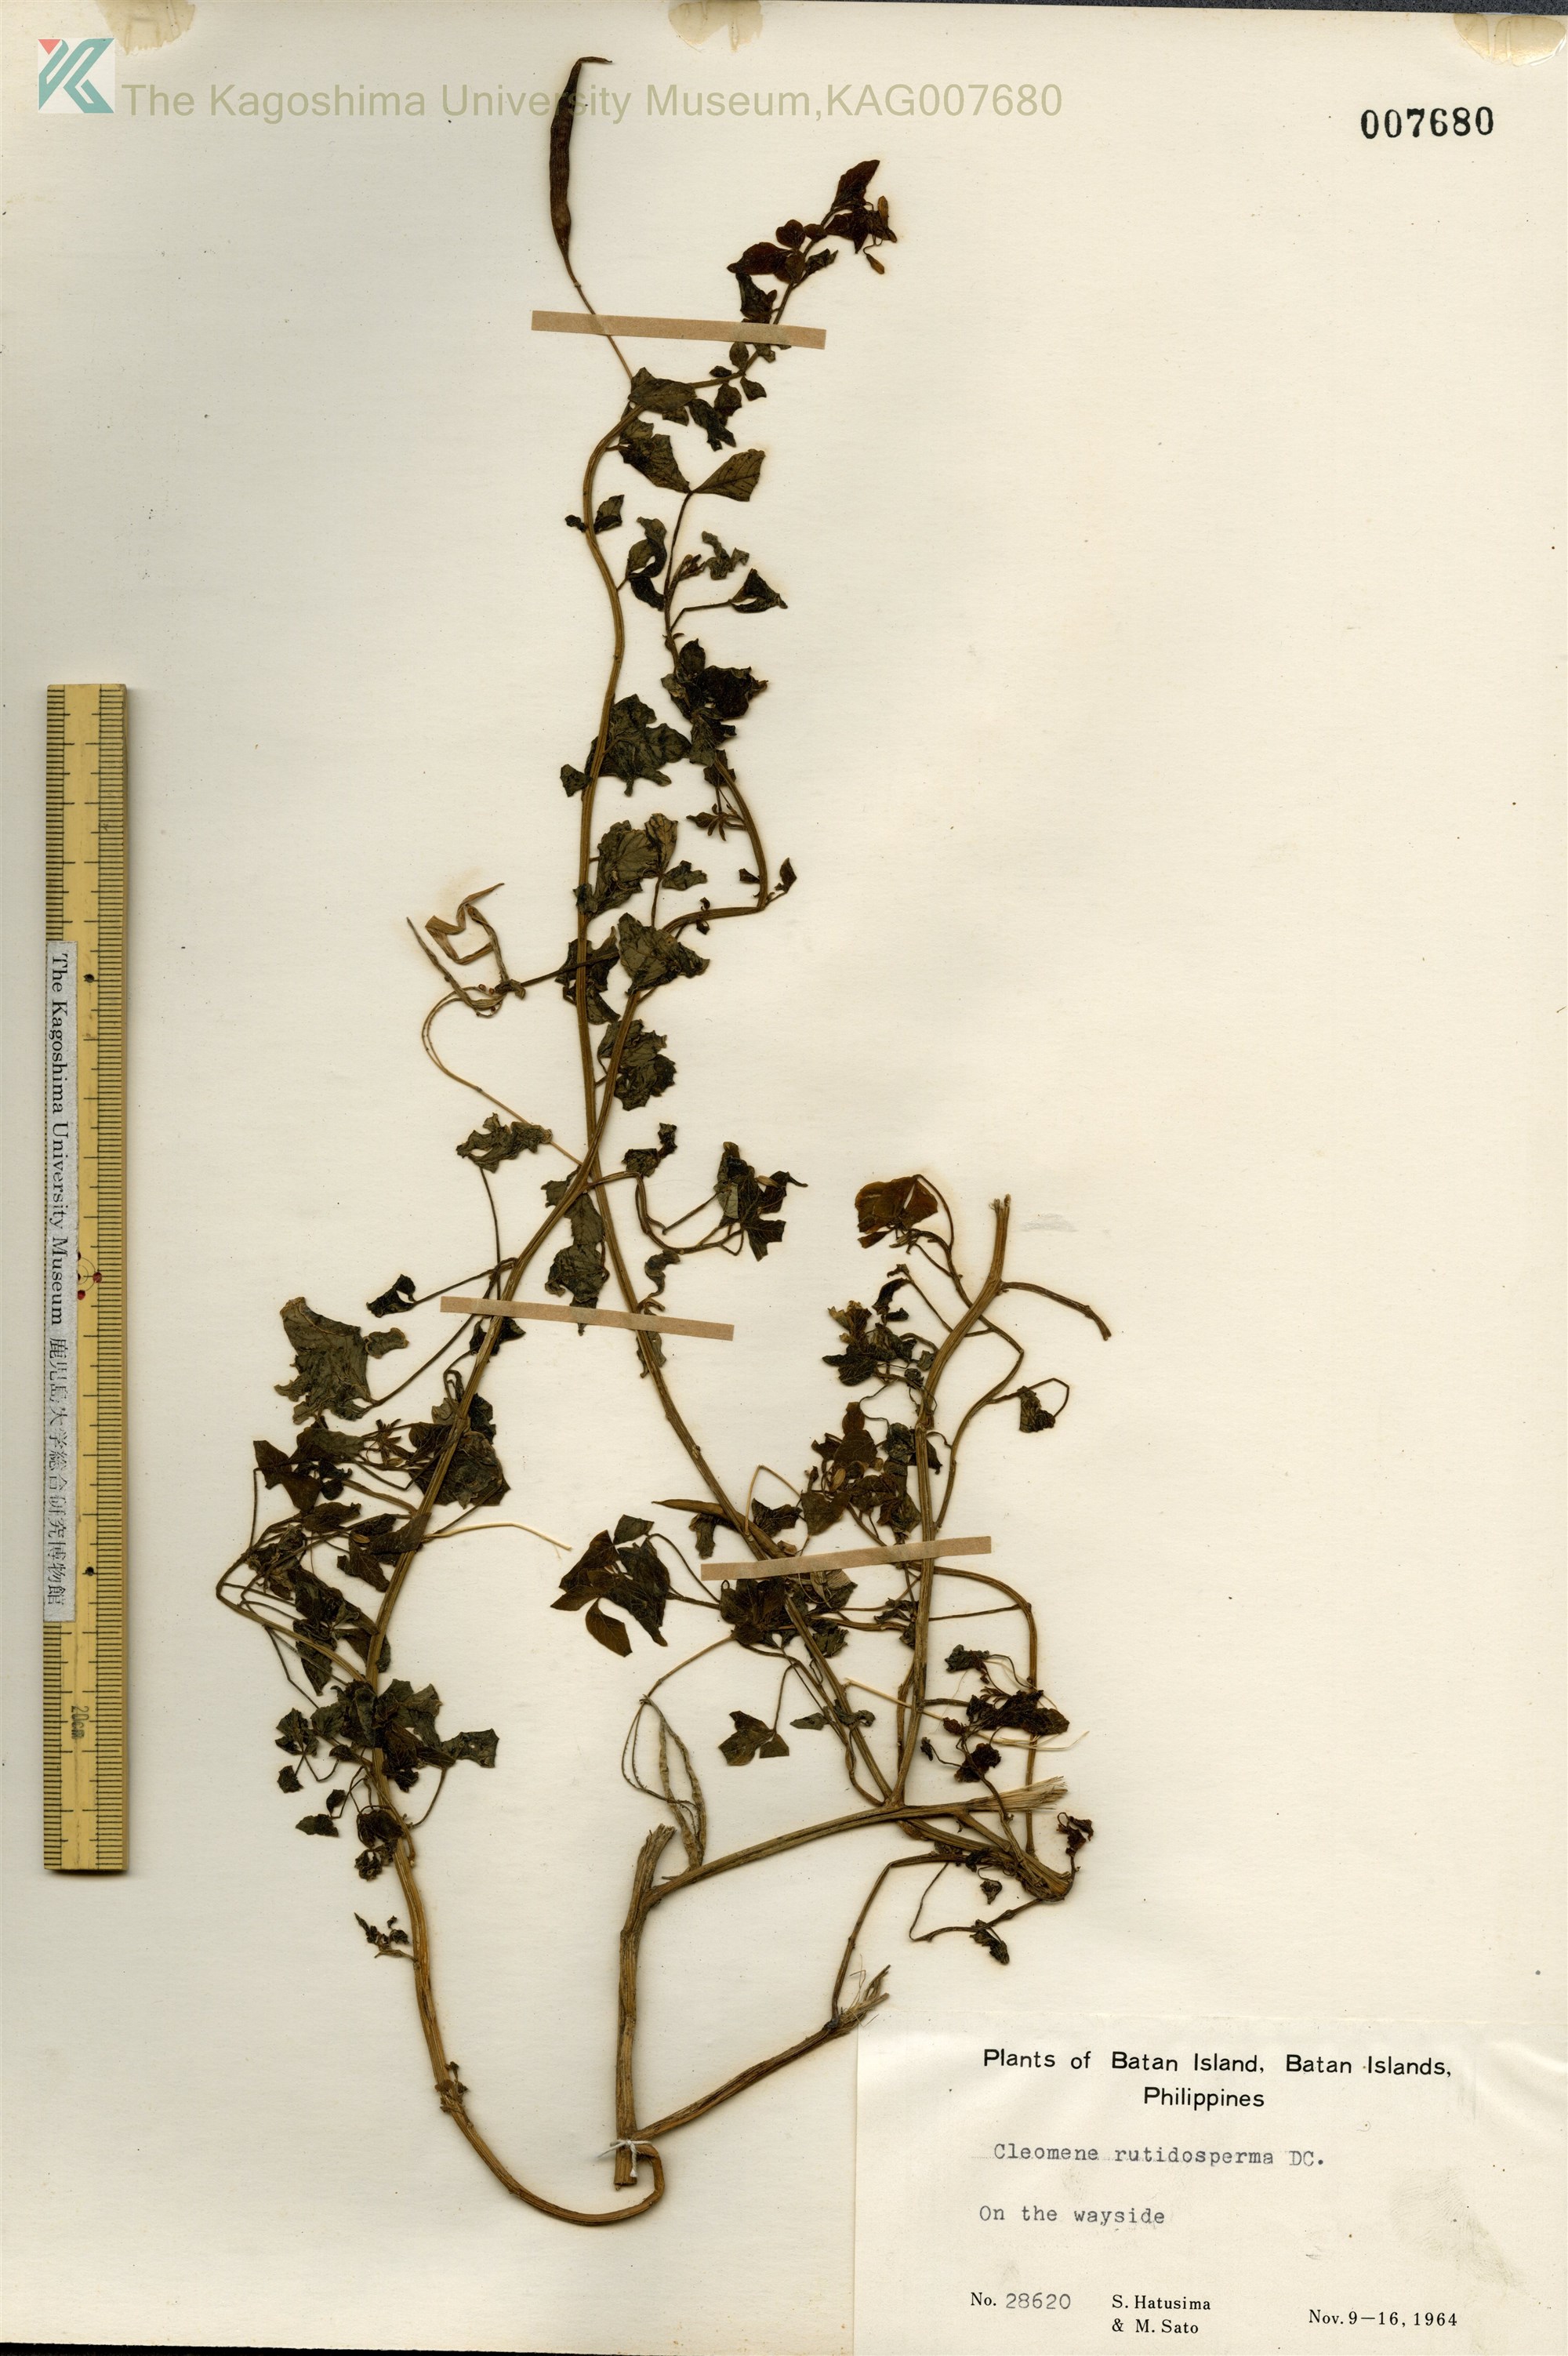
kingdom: Plantae
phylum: Tracheophyta
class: Magnoliopsida
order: Brassicales
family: Cleomaceae
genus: Sieruela
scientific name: Sieruela rutidosperma
